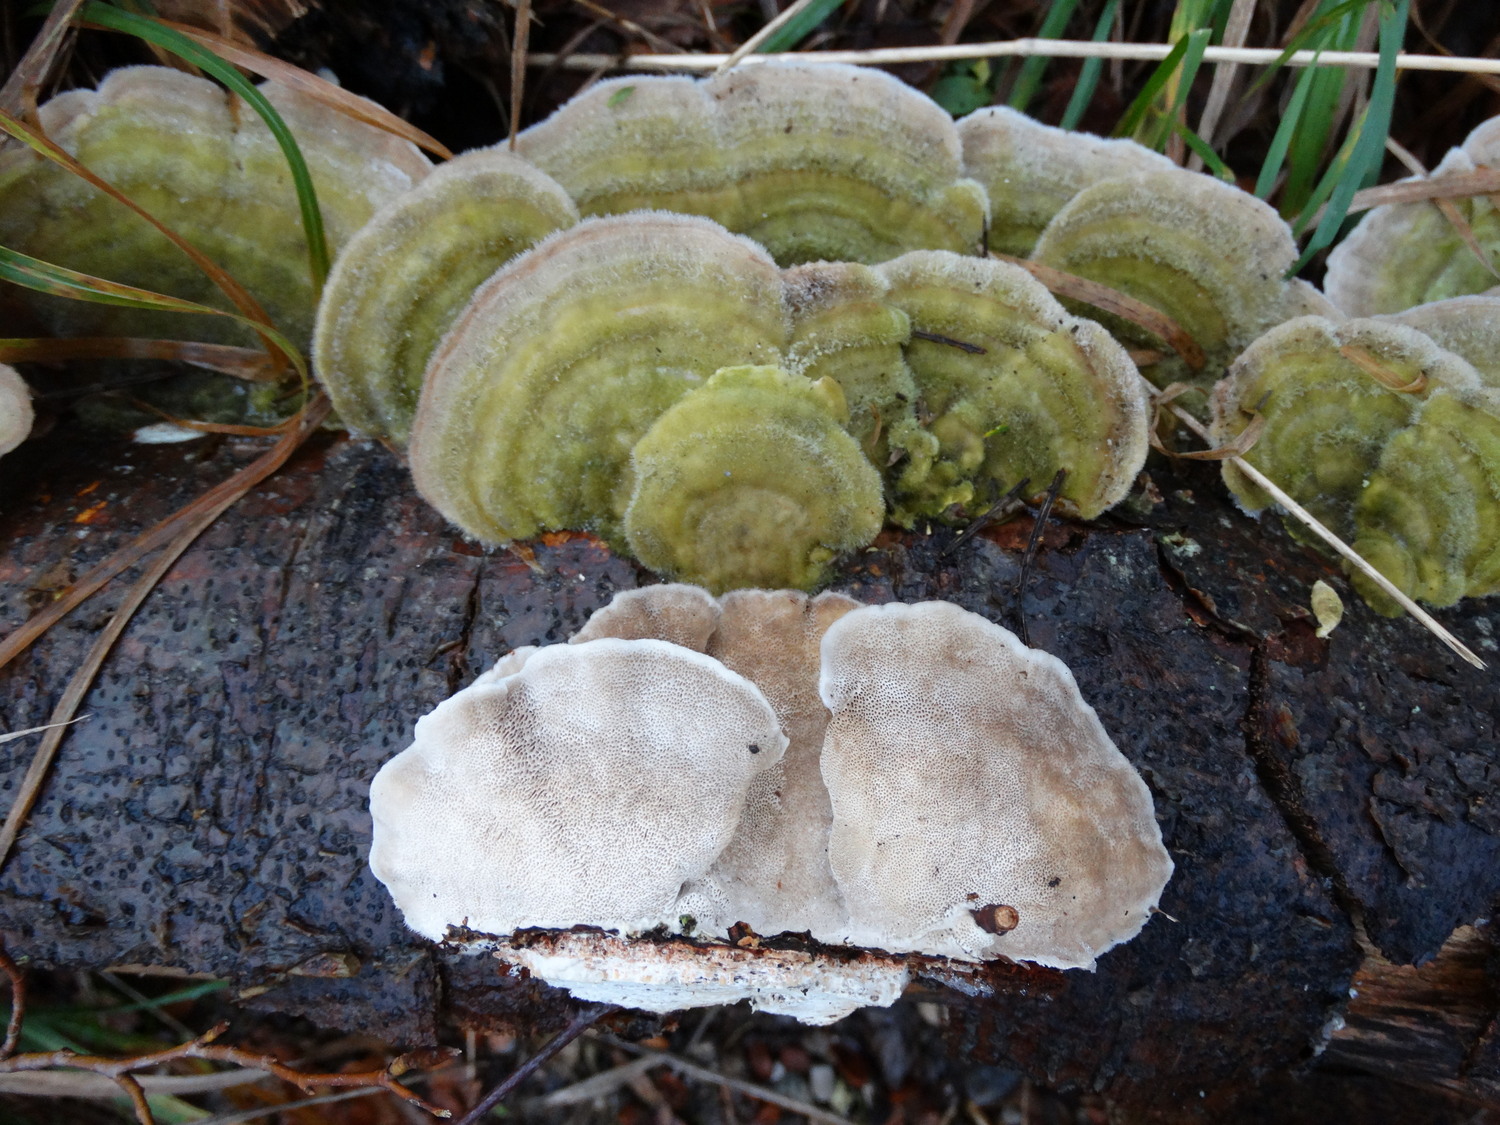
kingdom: Fungi
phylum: Basidiomycota
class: Agaricomycetes
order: Polyporales
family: Polyporaceae
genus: Trametes
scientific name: Trametes hirsuta
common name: håret læderporesvamp
